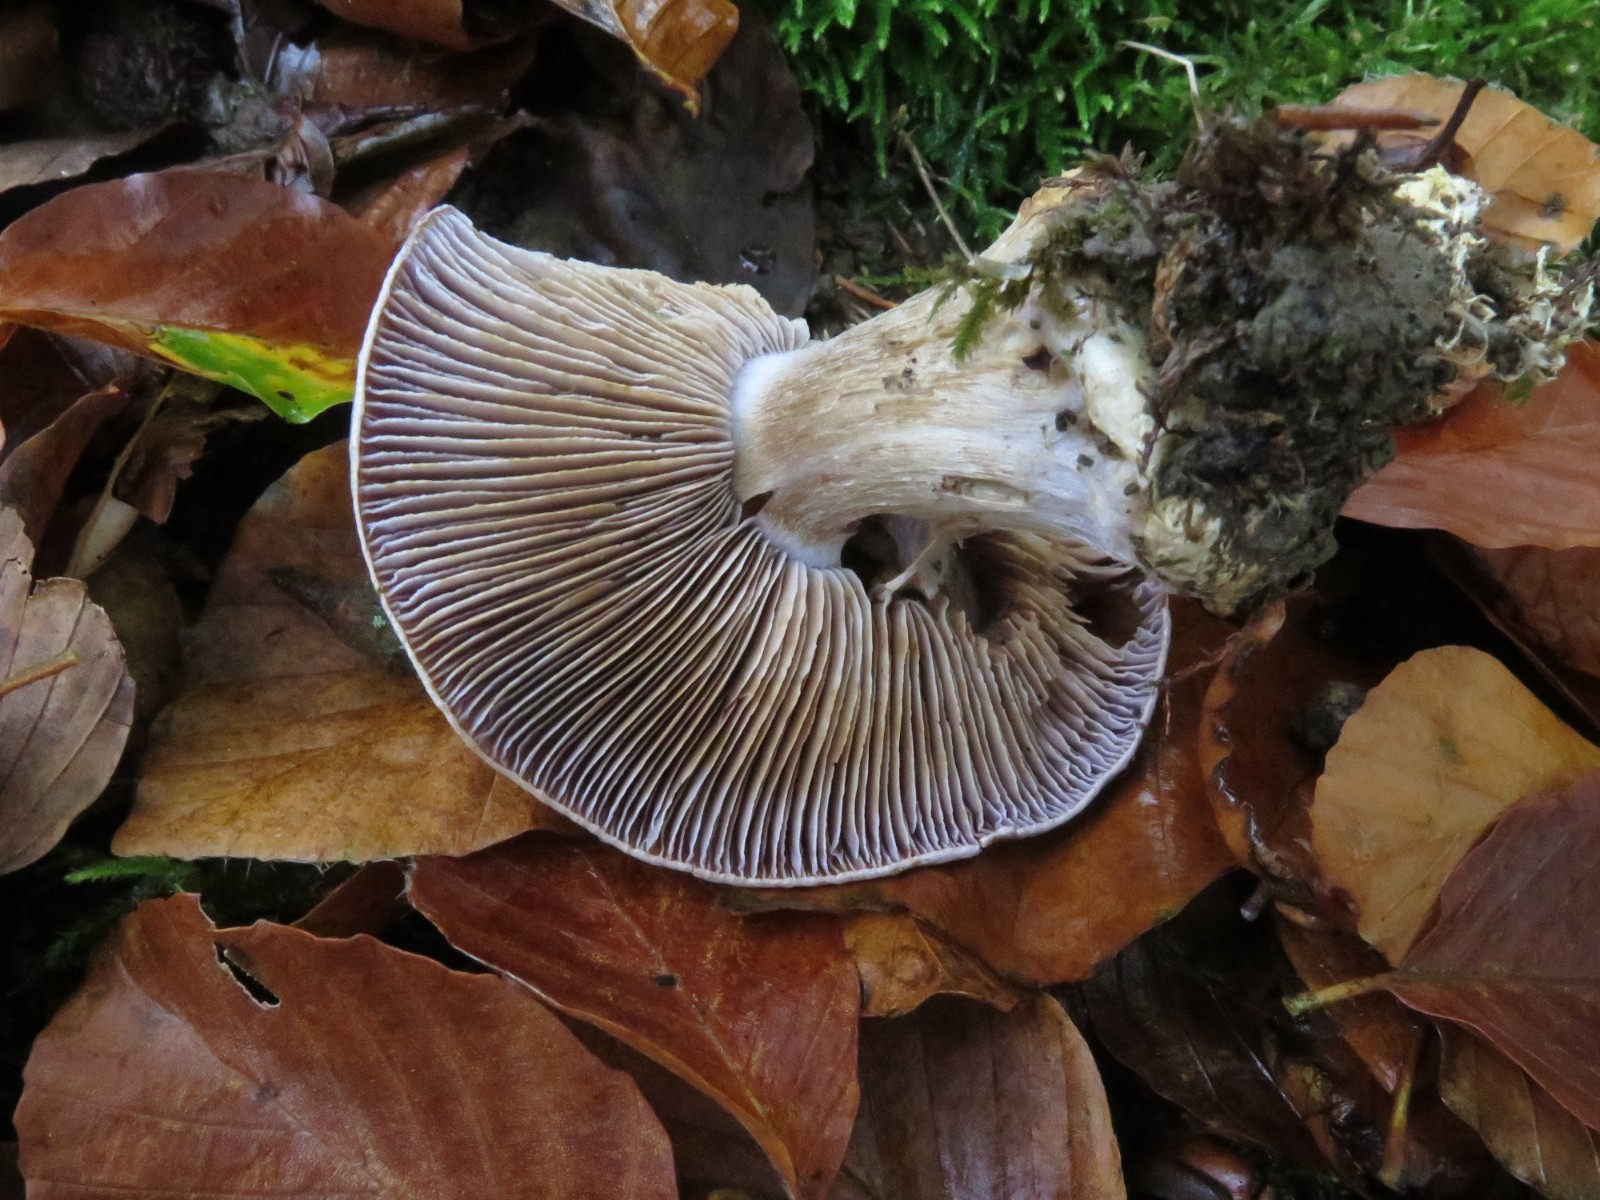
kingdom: Fungi
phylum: Basidiomycota
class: Agaricomycetes
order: Agaricales
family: Cortinariaceae
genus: Cortinarius
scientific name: Cortinarius caerulescens
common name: blåkødet slørhat
